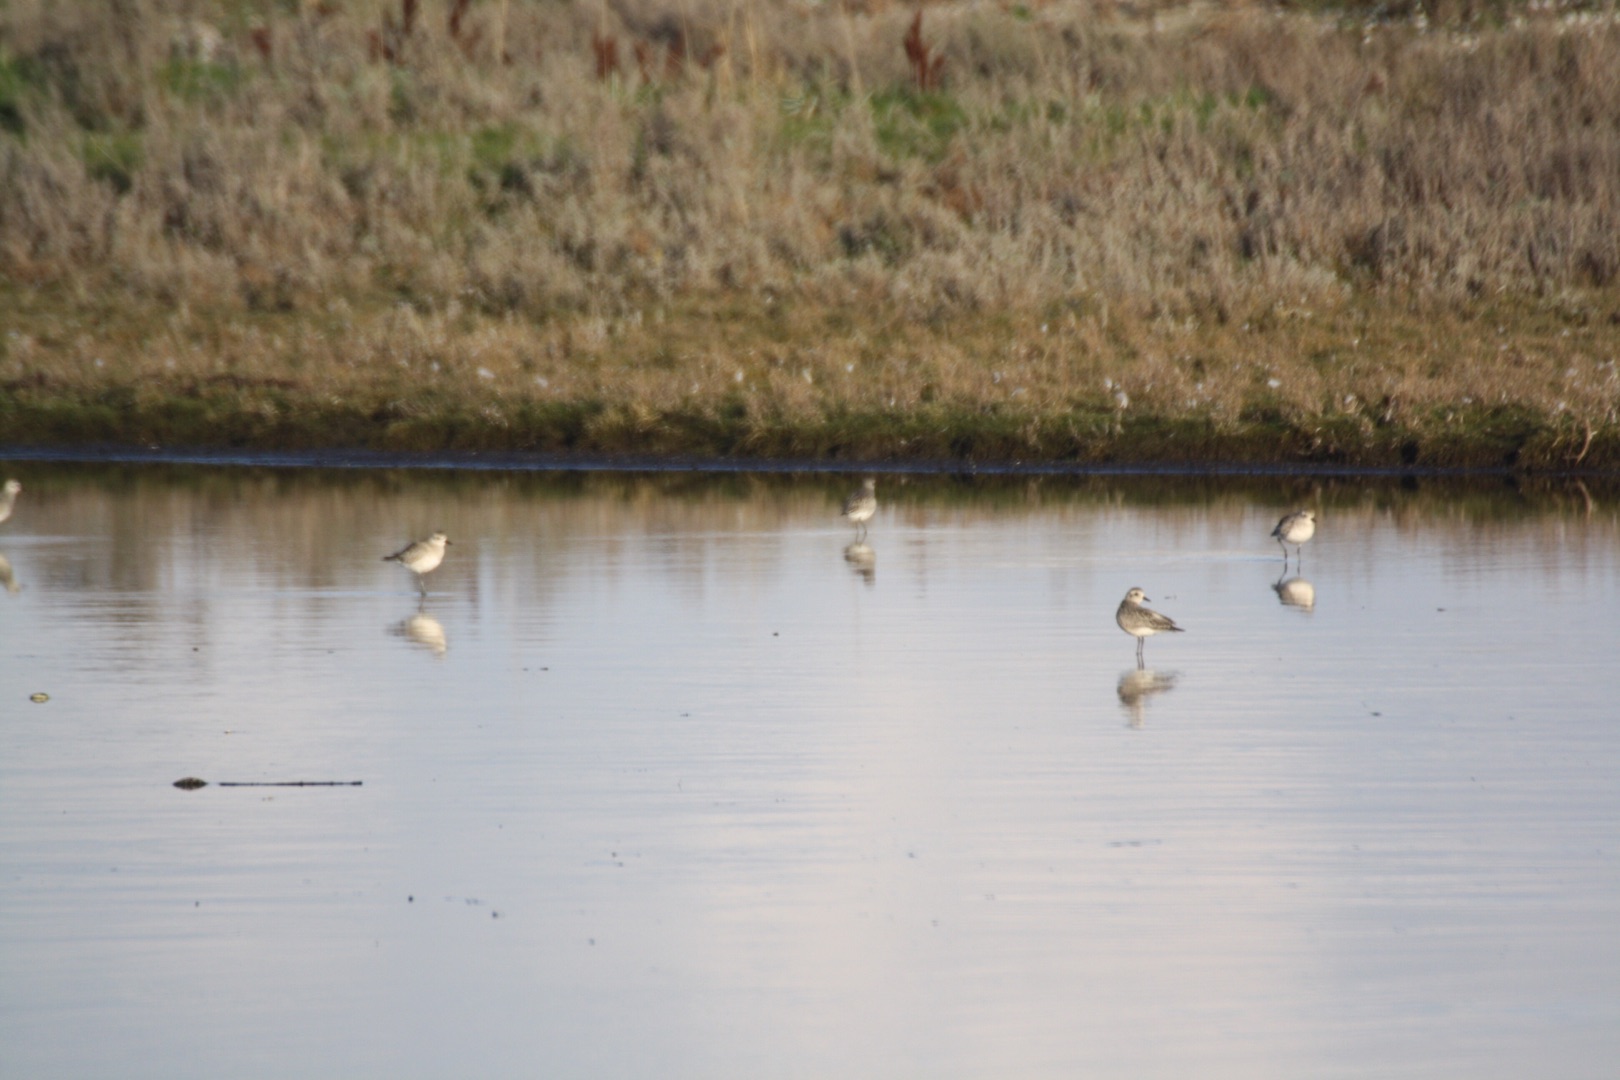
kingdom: Animalia
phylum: Chordata
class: Aves
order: Charadriiformes
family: Charadriidae
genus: Pluvialis
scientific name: Pluvialis squatarola
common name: Strandhjejle
